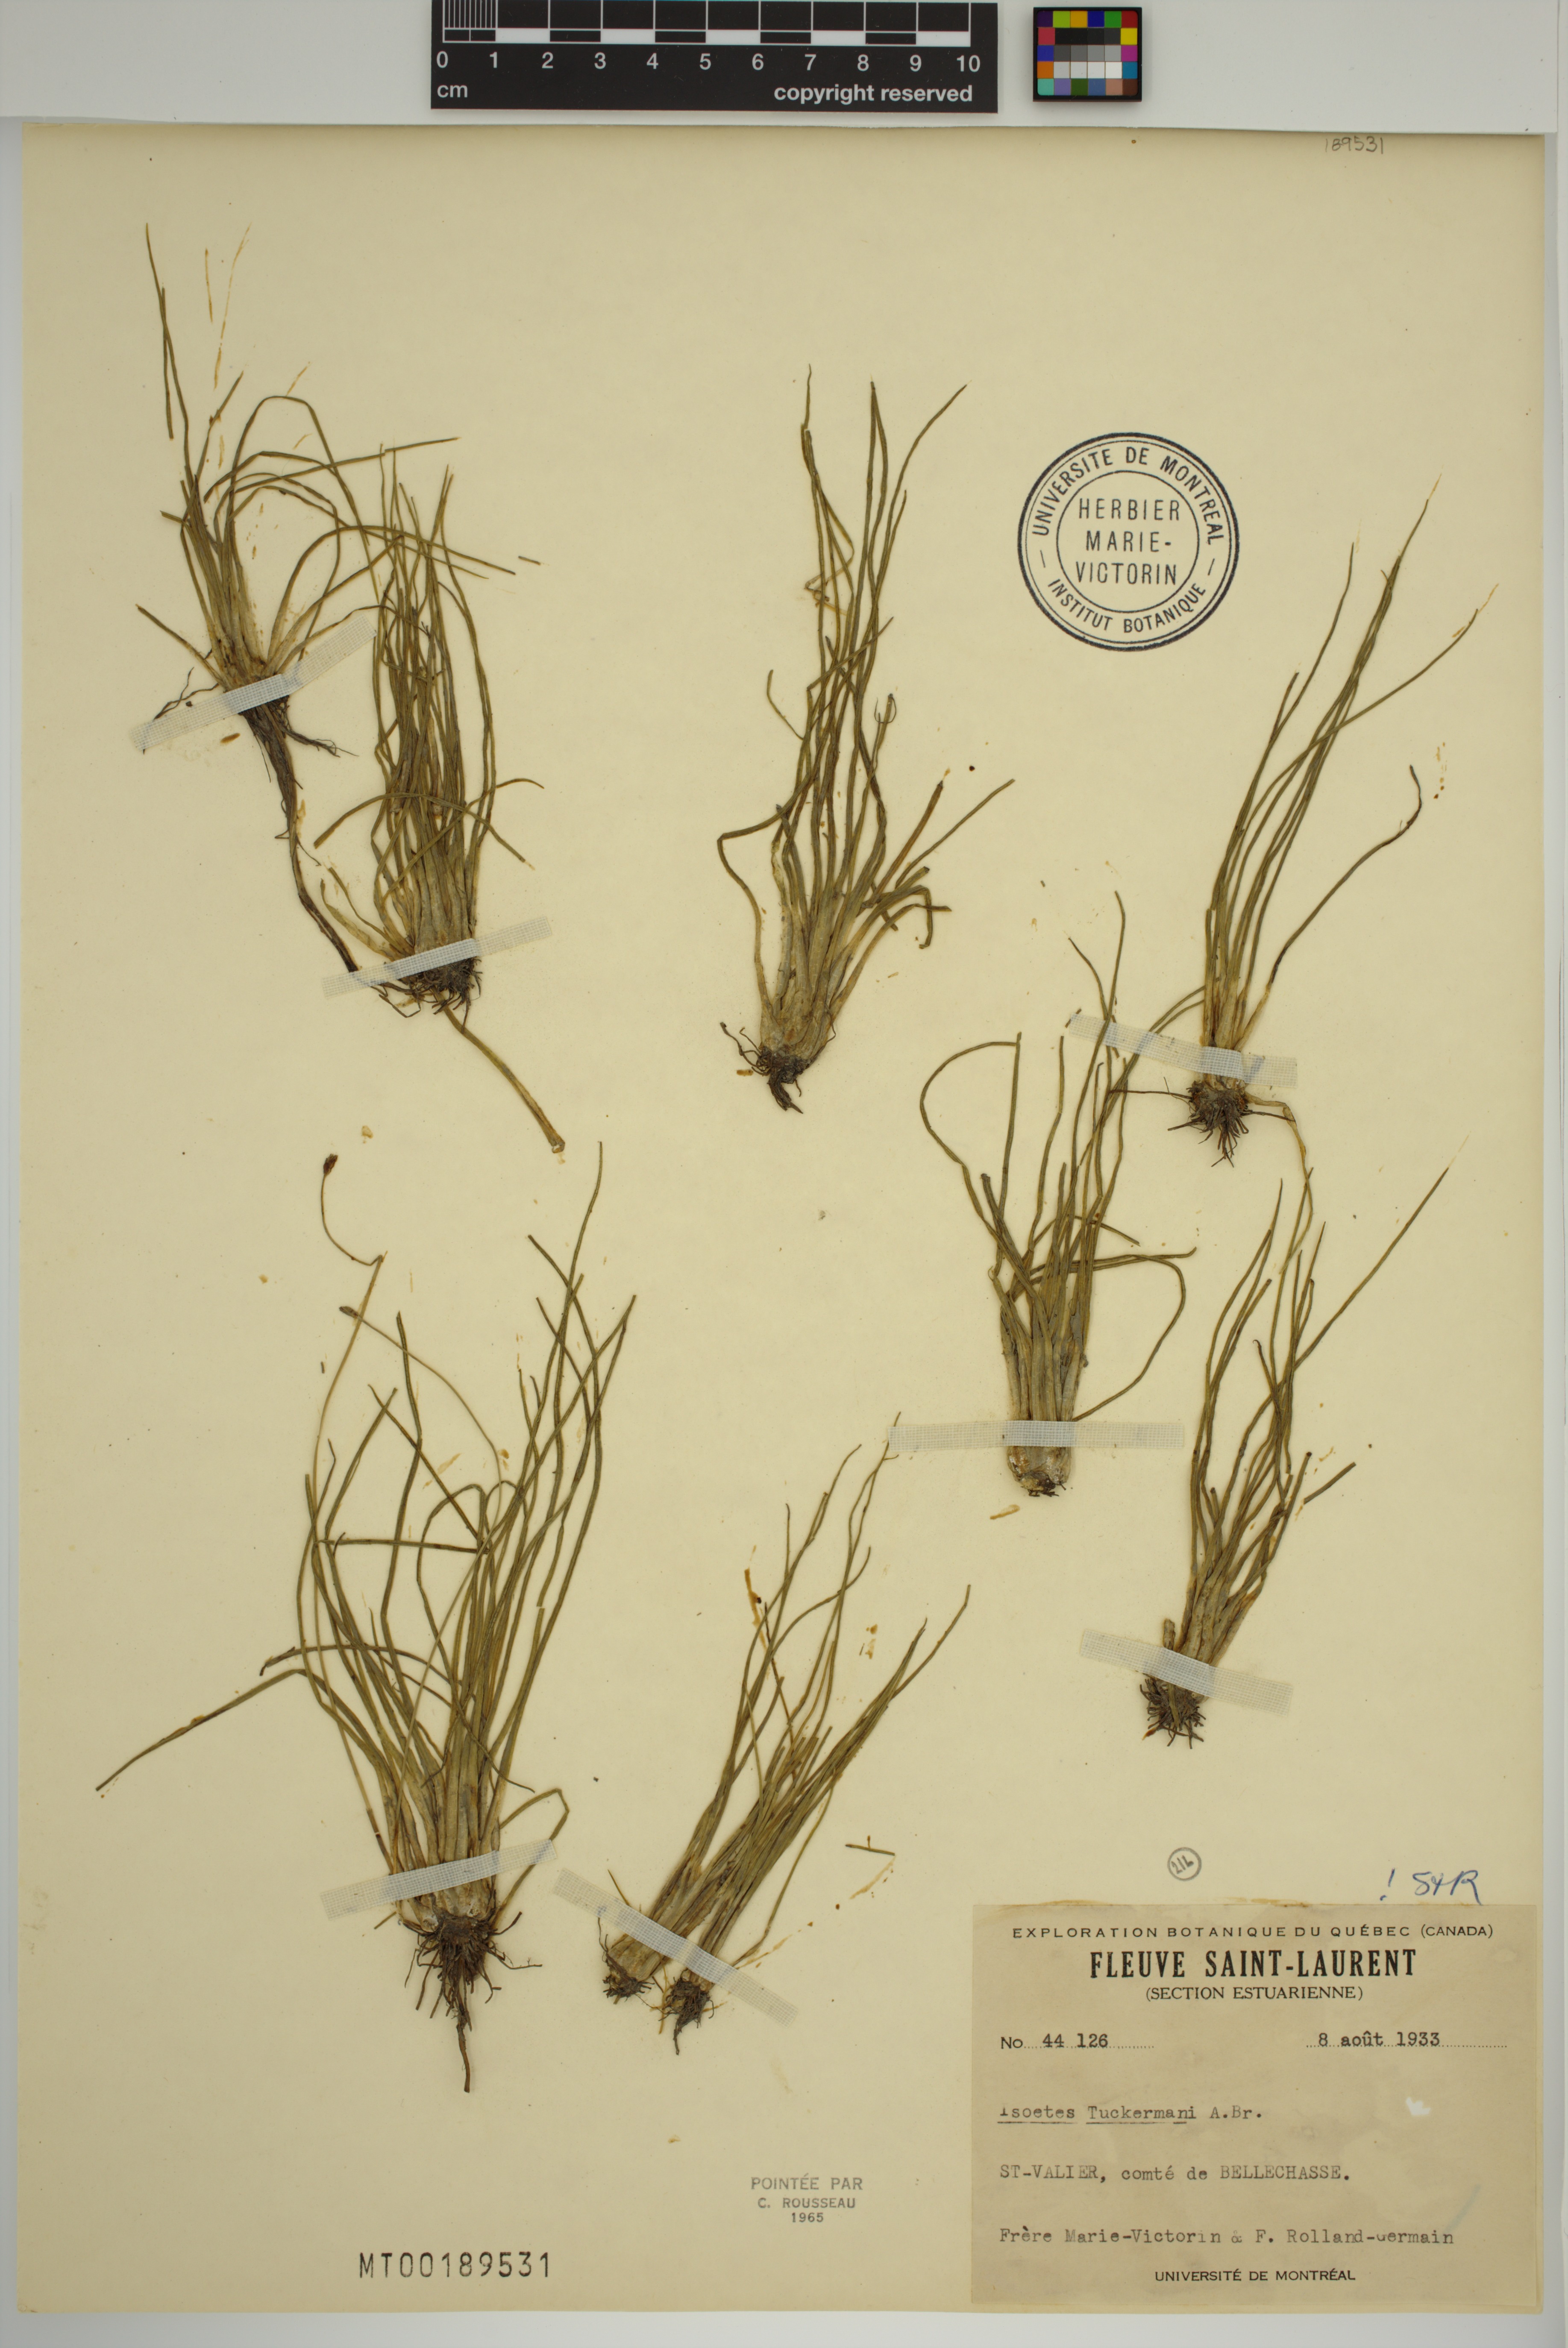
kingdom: Plantae
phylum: Tracheophyta
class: Lycopodiopsida
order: Isoetales
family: Isoetaceae
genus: Isoetes
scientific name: Isoetes laurentiana
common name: St. lawrence quillwort
